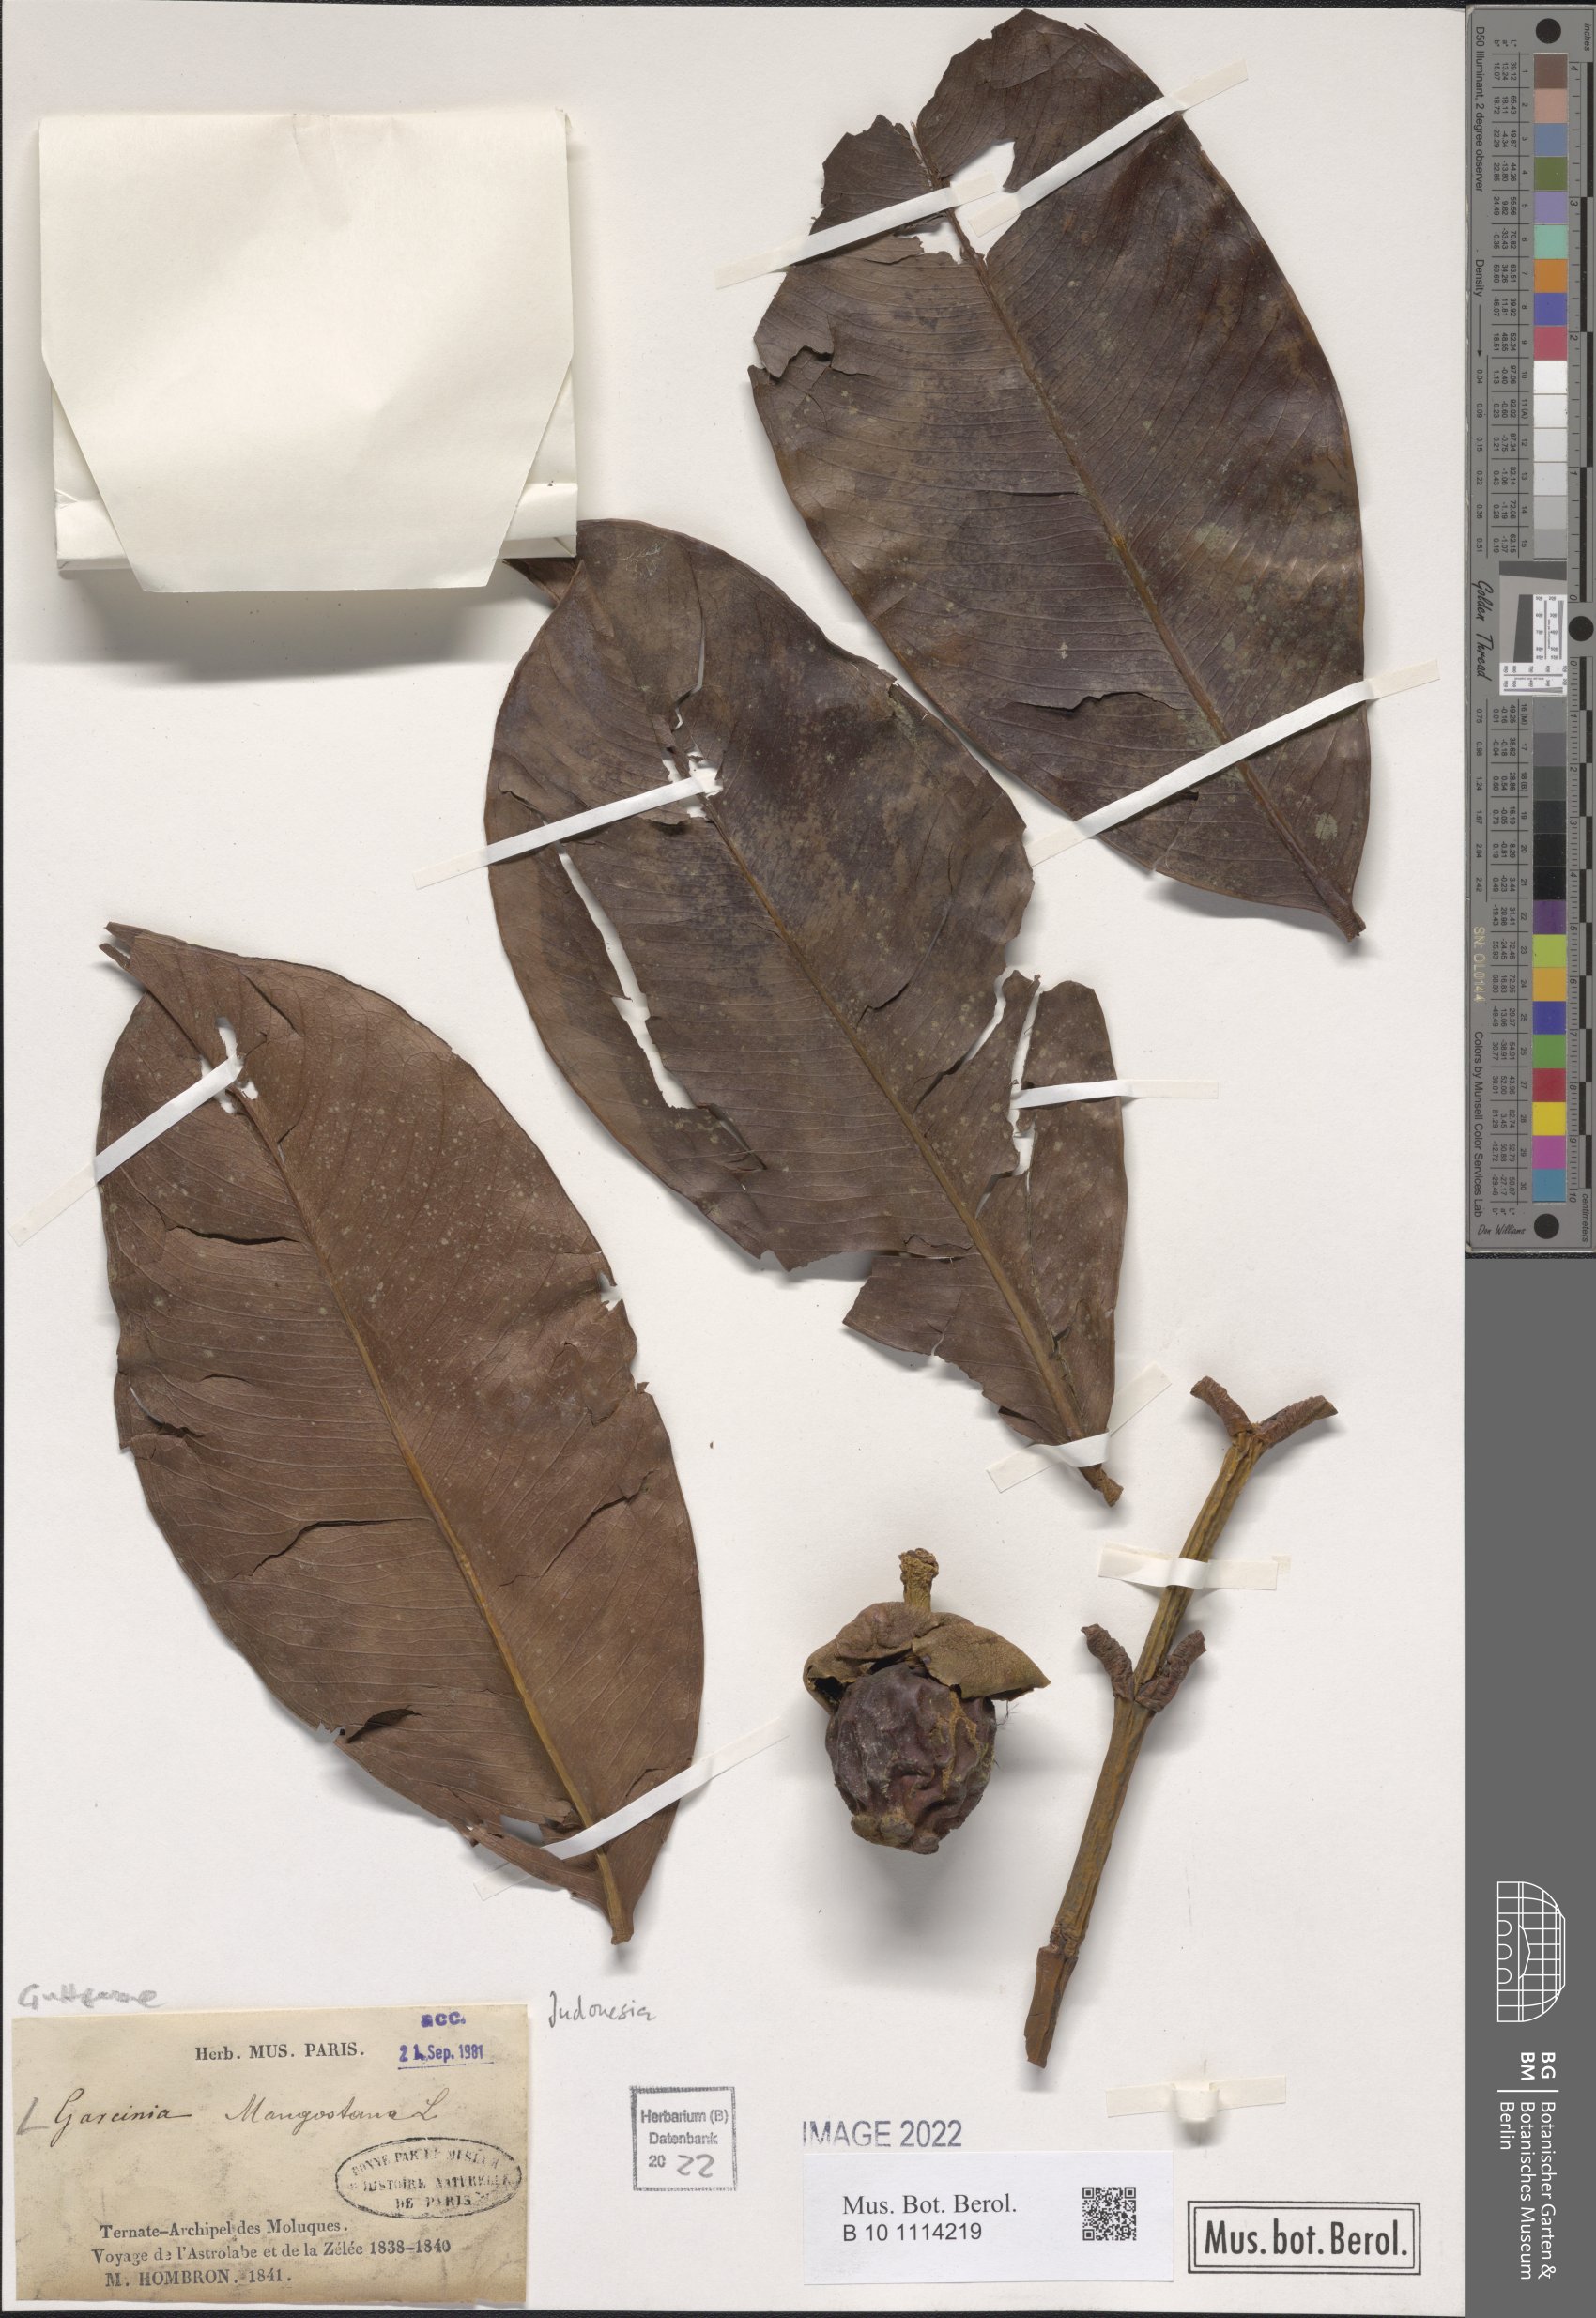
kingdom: Plantae
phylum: Tracheophyta
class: Magnoliopsida
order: Malpighiales
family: Clusiaceae
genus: Garcinia
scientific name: Garcinia mangostana
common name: Mangosteen
